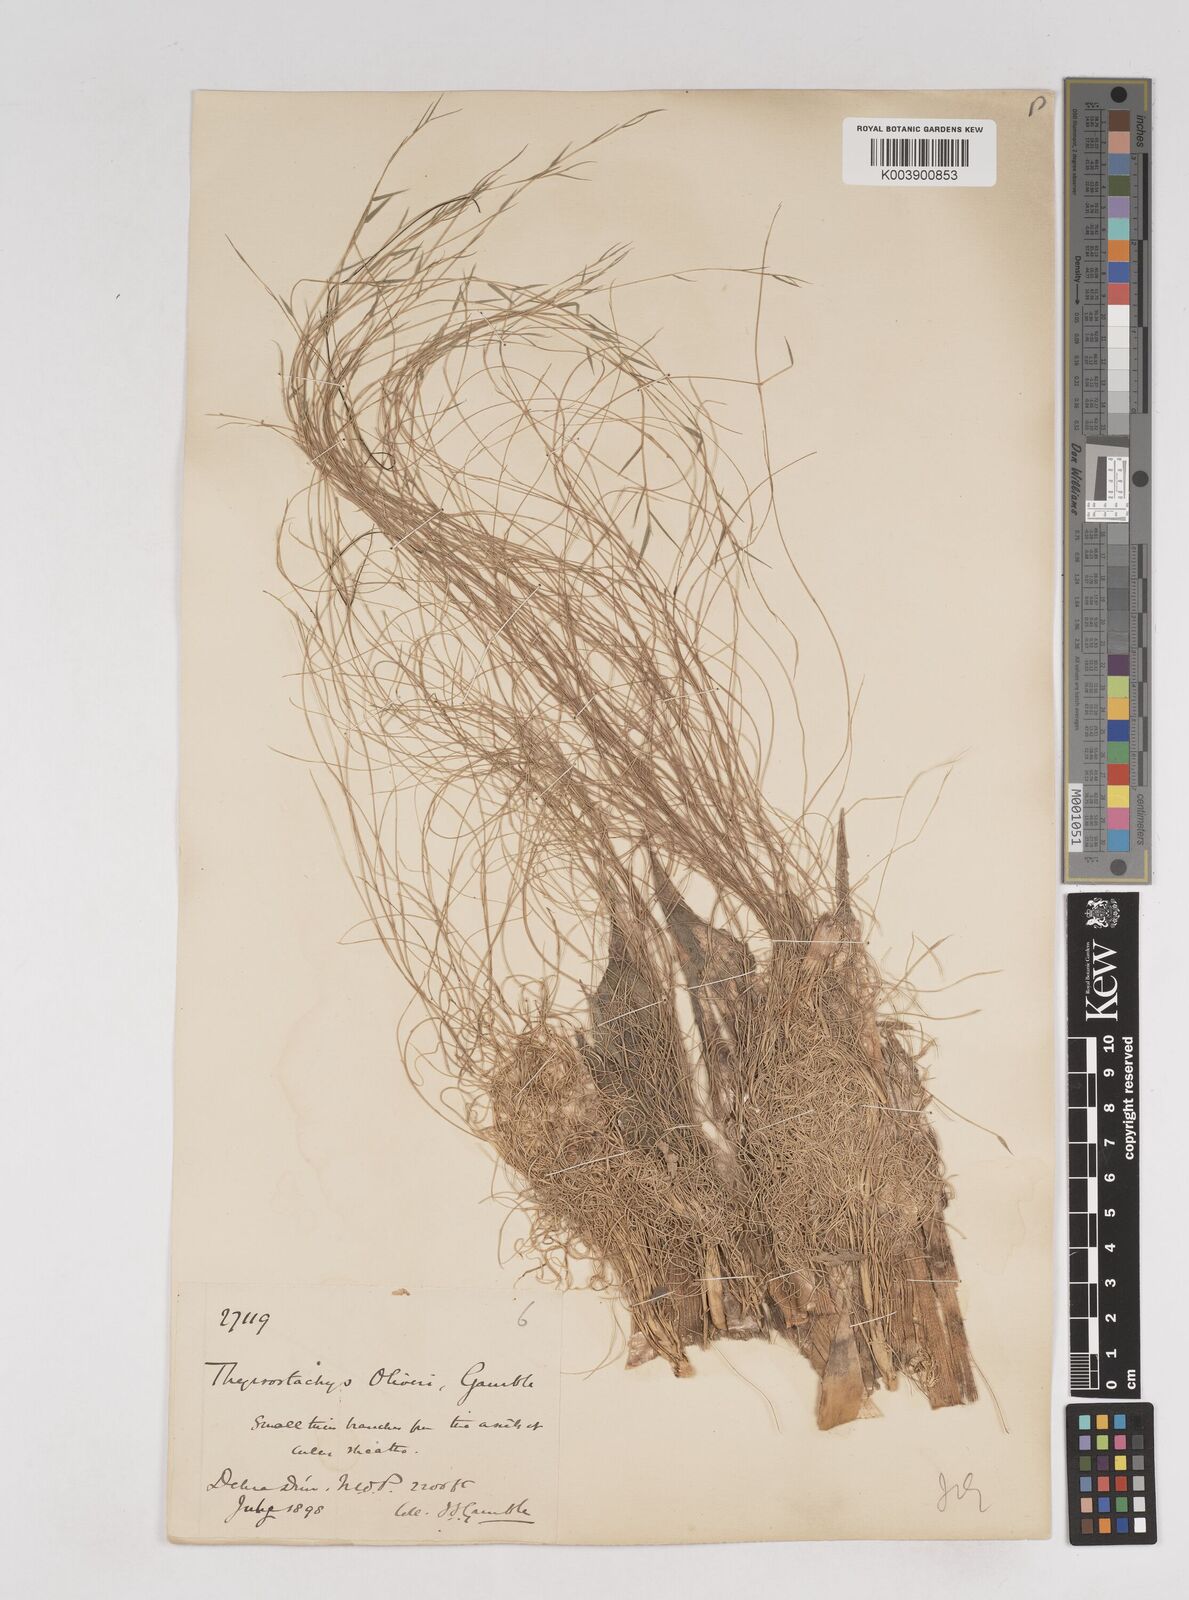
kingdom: Plantae
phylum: Tracheophyta
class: Liliopsida
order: Poales
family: Poaceae
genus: Thyrsostachys
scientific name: Thyrsostachys oliveri
